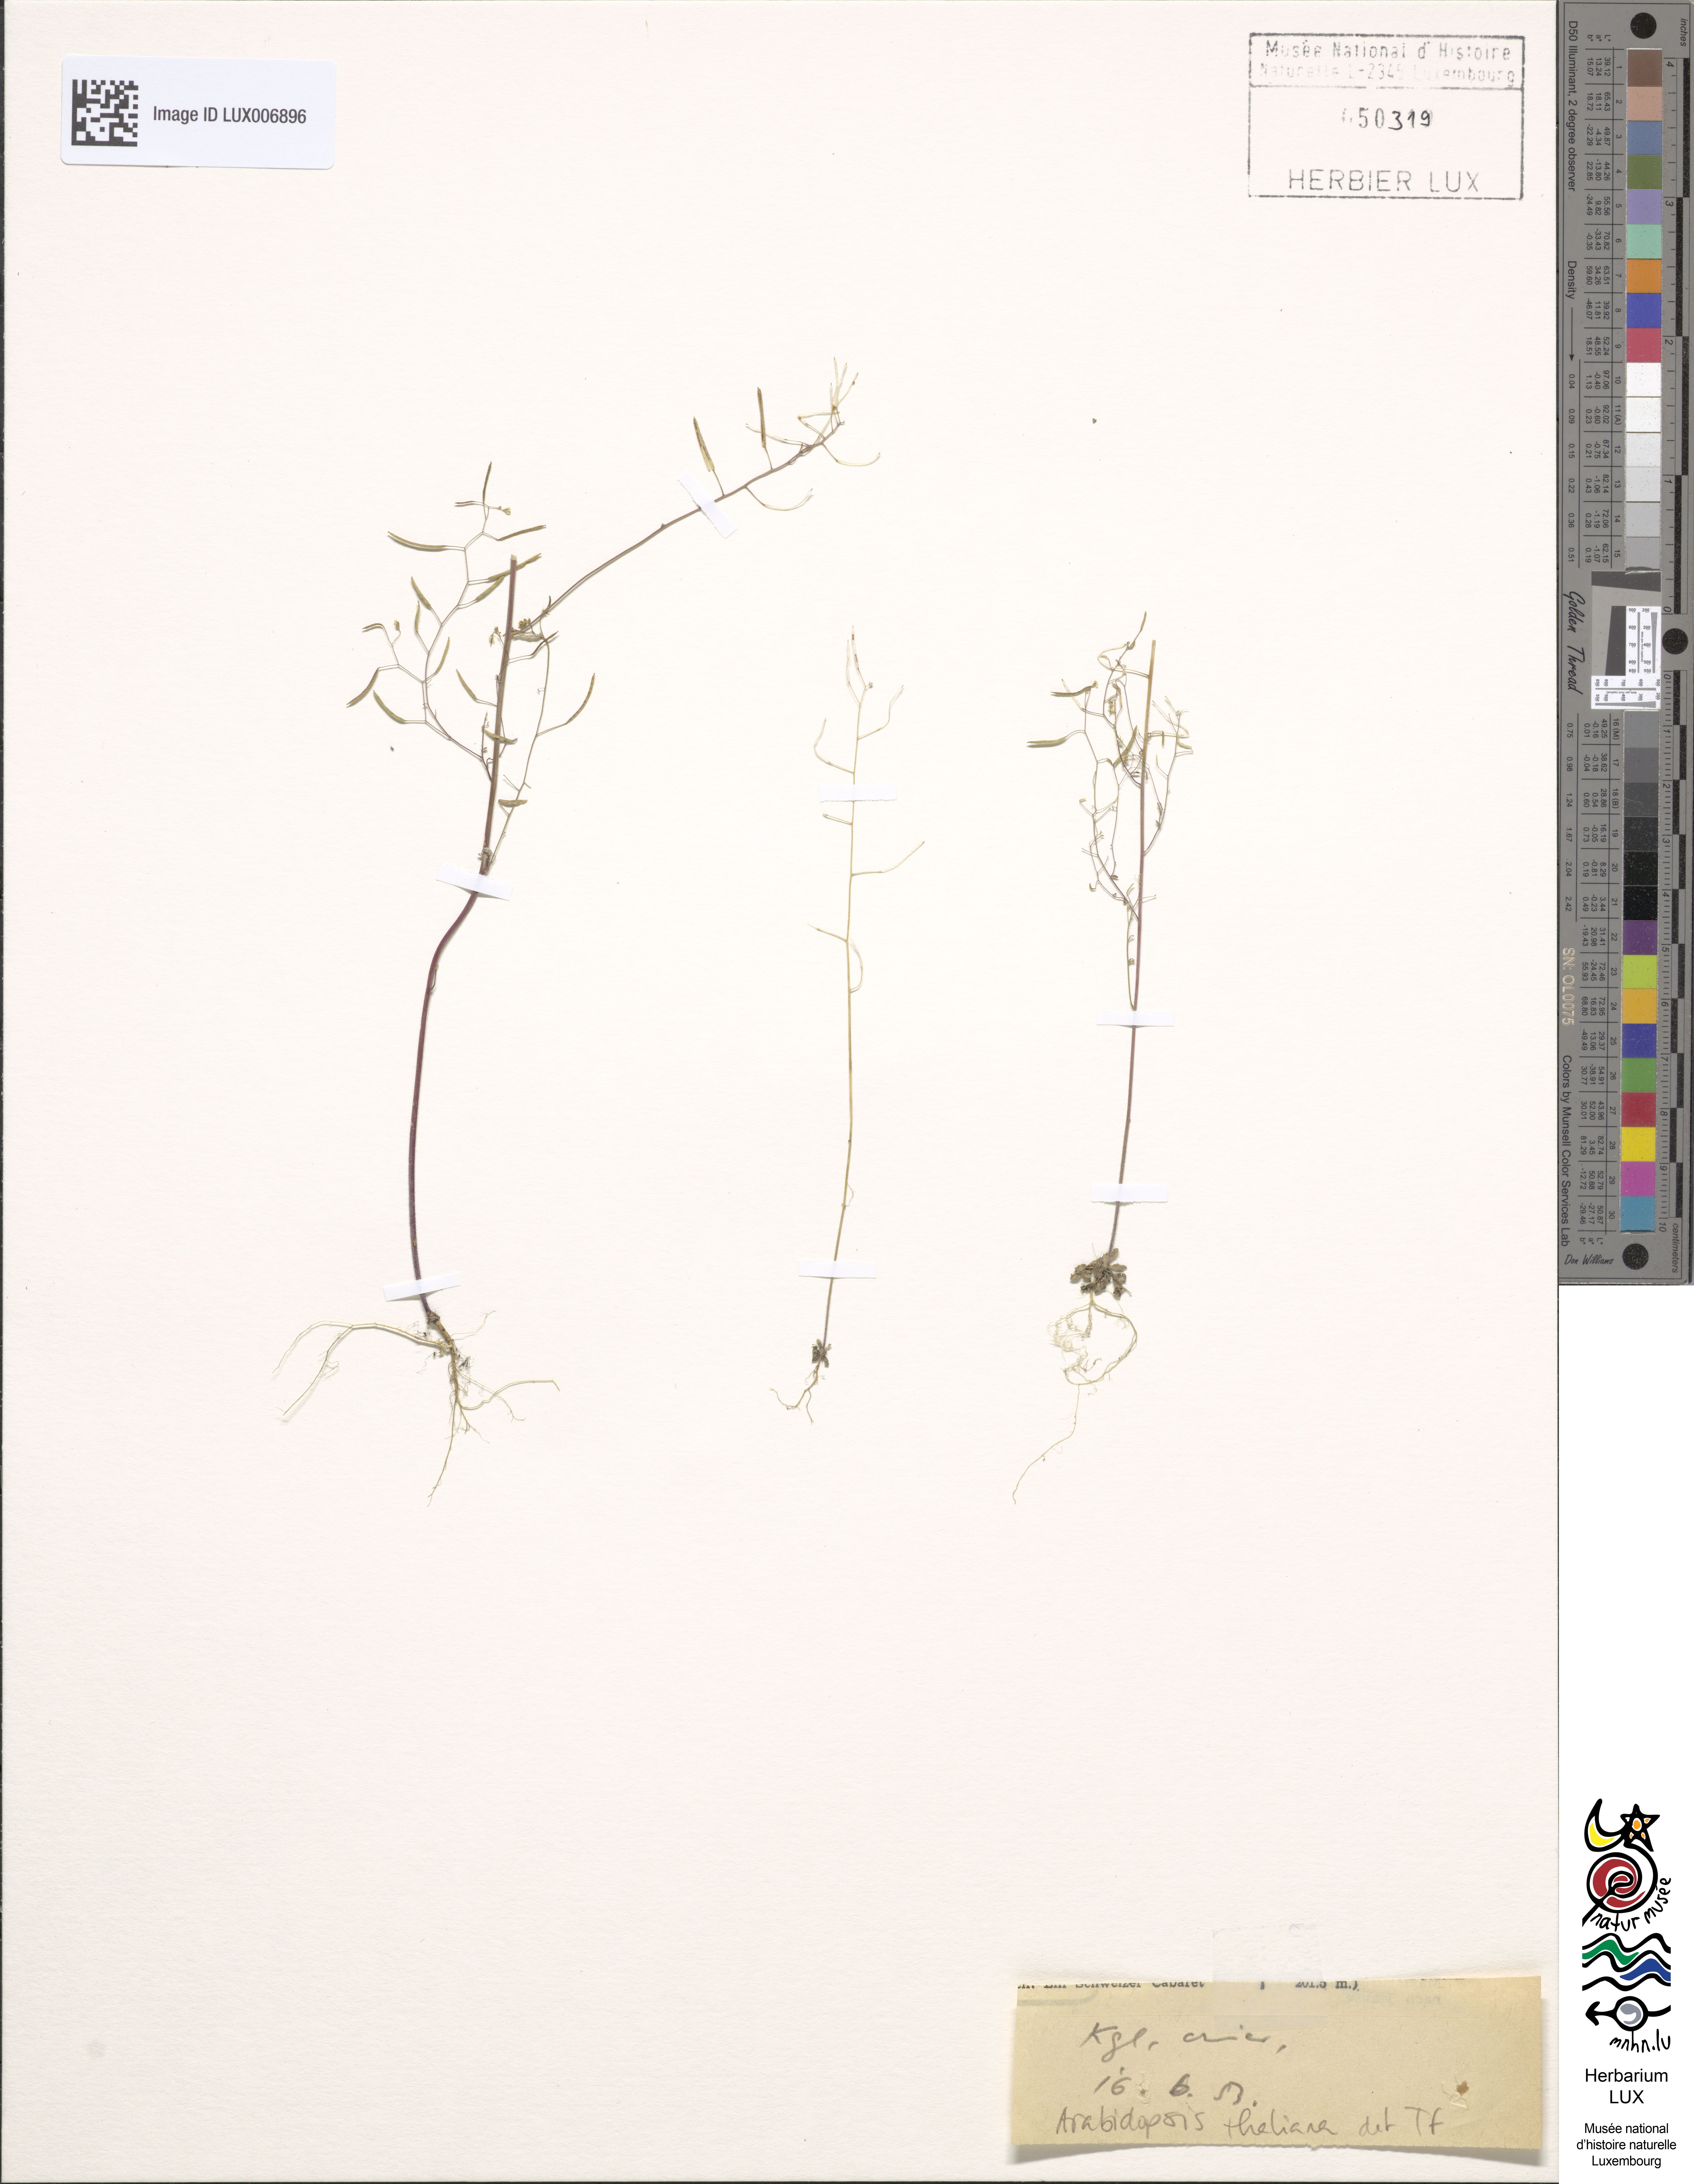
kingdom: Plantae
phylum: Tracheophyta
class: Magnoliopsida
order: Brassicales
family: Brassicaceae
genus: Arabidopsis
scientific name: Arabidopsis thaliana
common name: Thale cress
